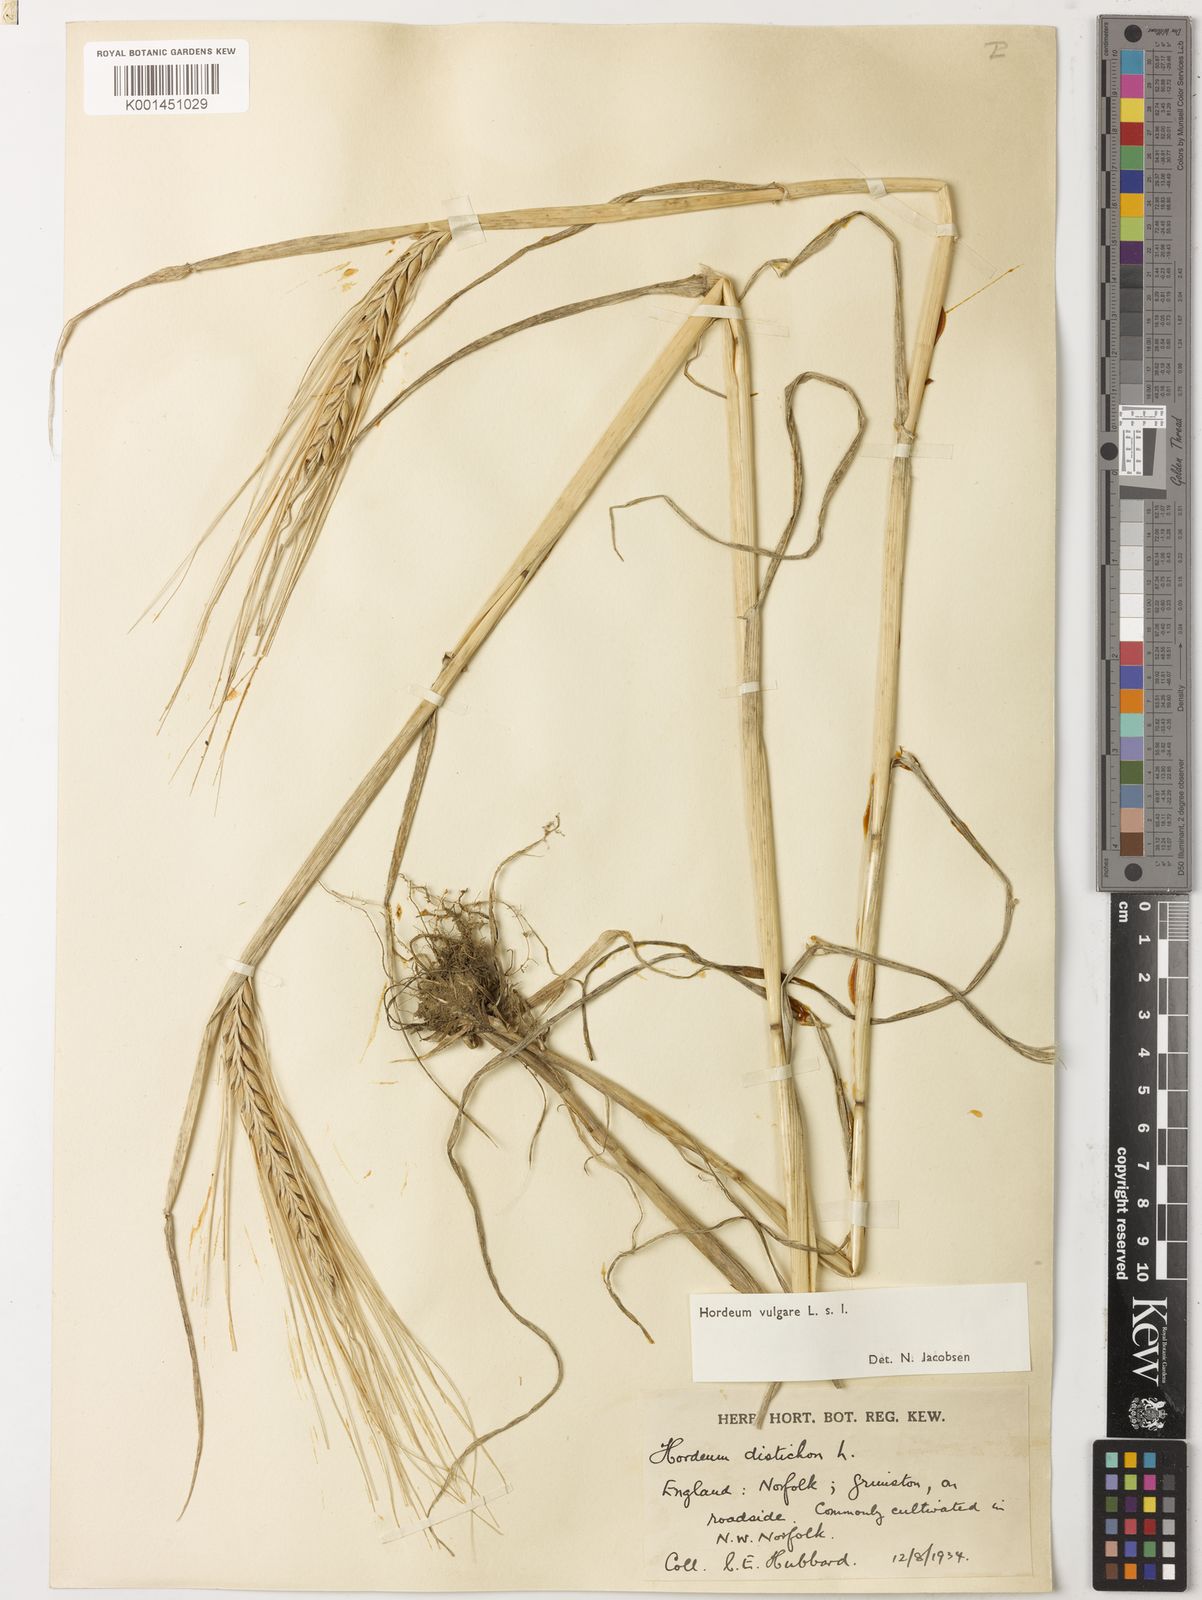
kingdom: Plantae
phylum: Tracheophyta
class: Liliopsida
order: Poales
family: Poaceae
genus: Hordeum
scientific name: Hordeum vulgare
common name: Common barley
